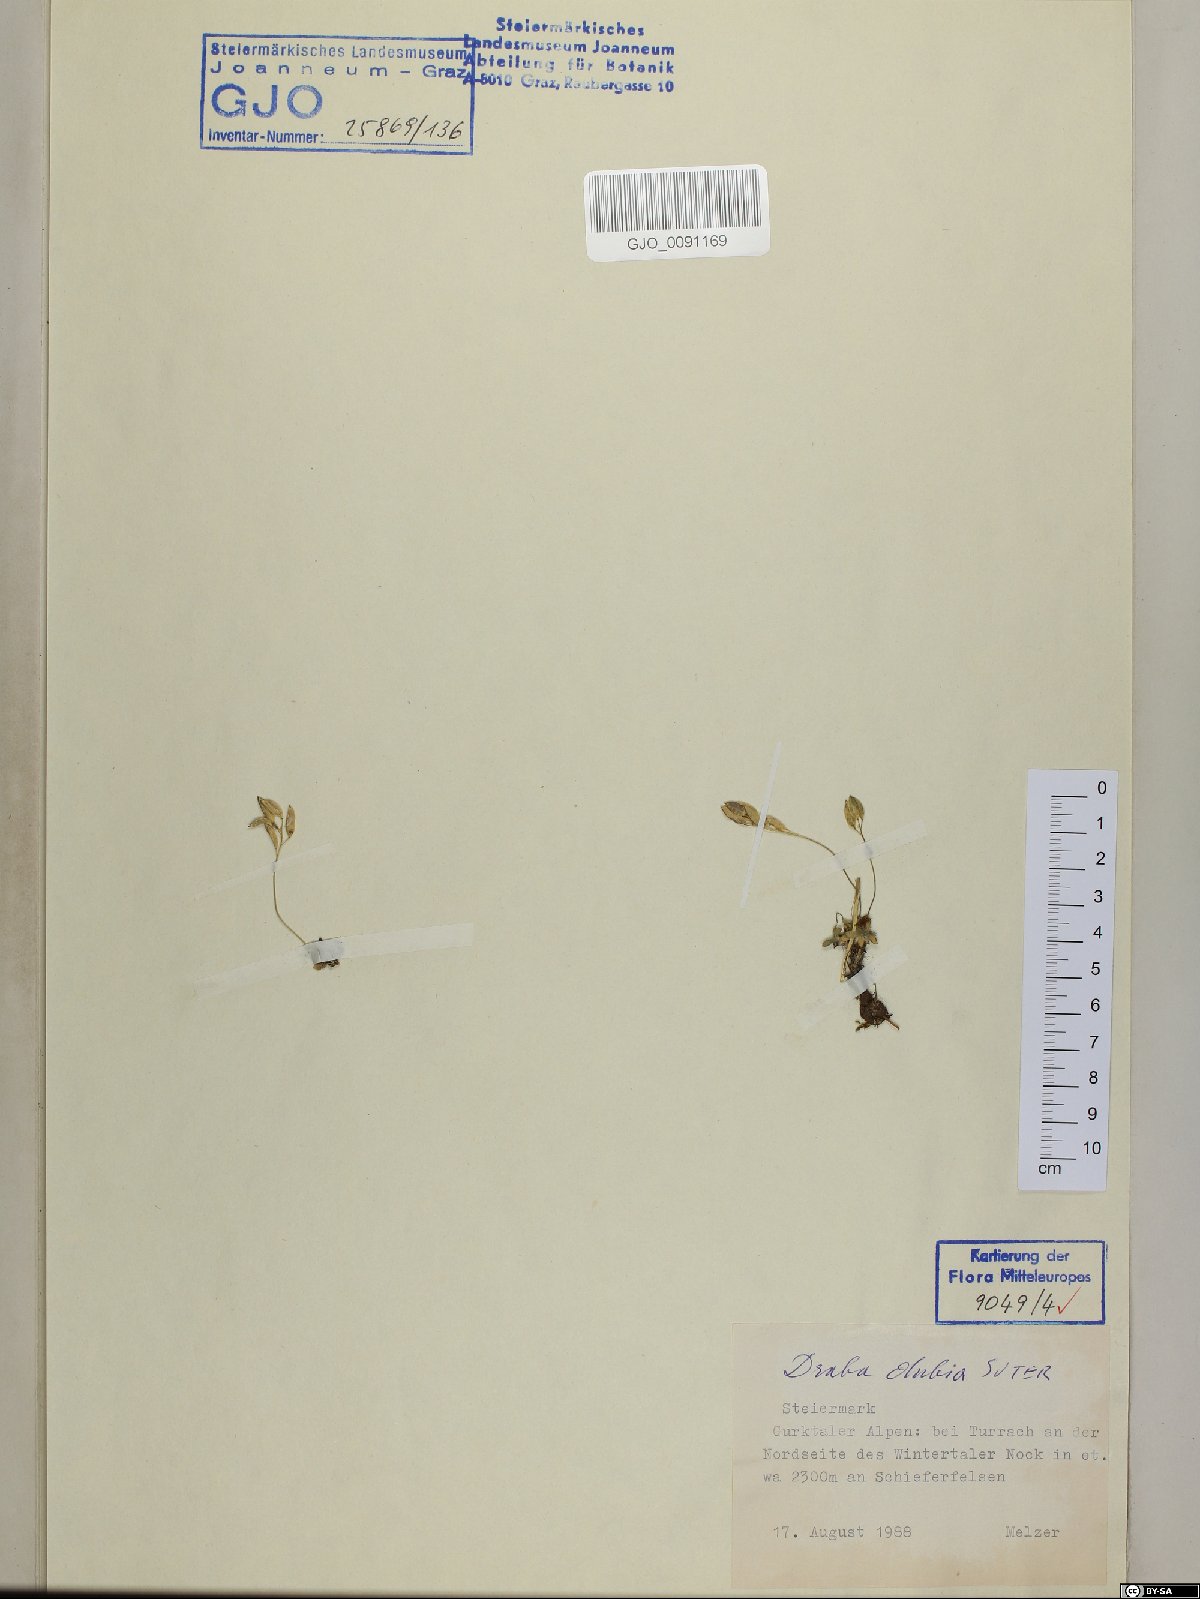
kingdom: Plantae
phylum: Tracheophyta
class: Magnoliopsida
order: Brassicales
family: Brassicaceae
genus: Draba
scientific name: Draba dubia
